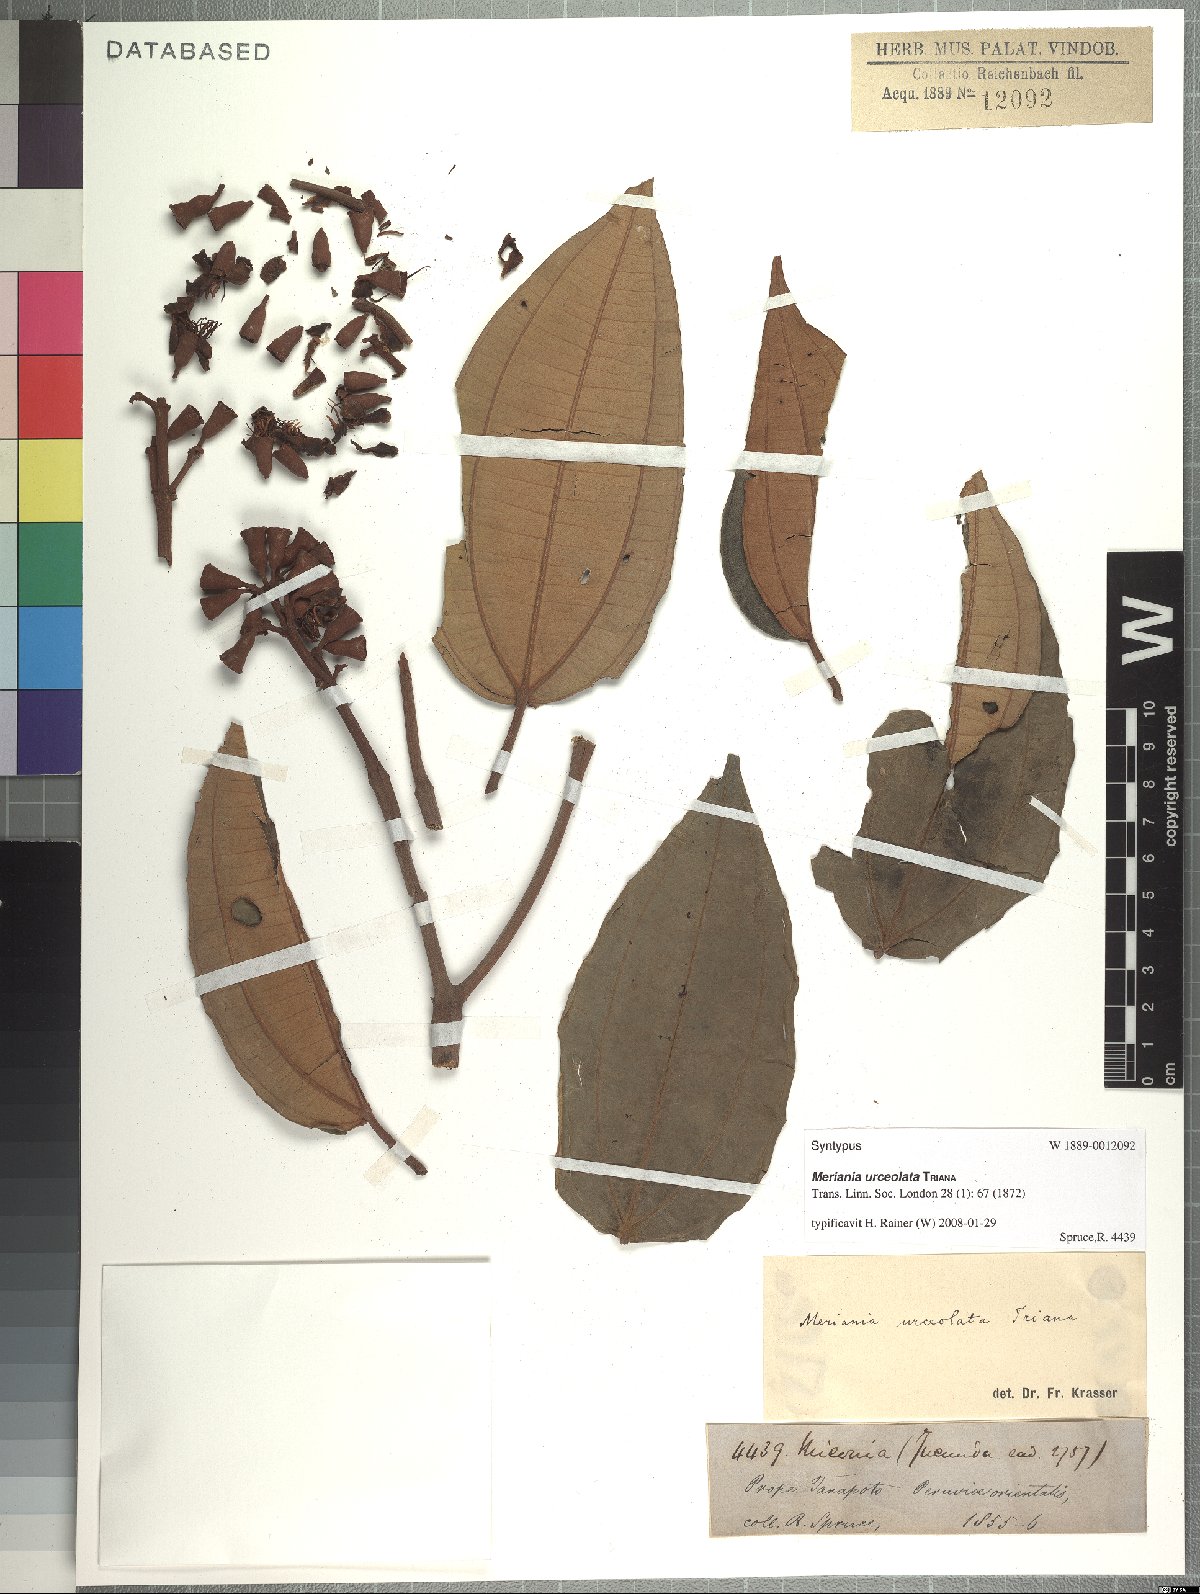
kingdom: Plantae
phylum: Tracheophyta
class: Magnoliopsida
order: Myrtales
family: Melastomataceae
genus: Meriania
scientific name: Meriania urceolata
